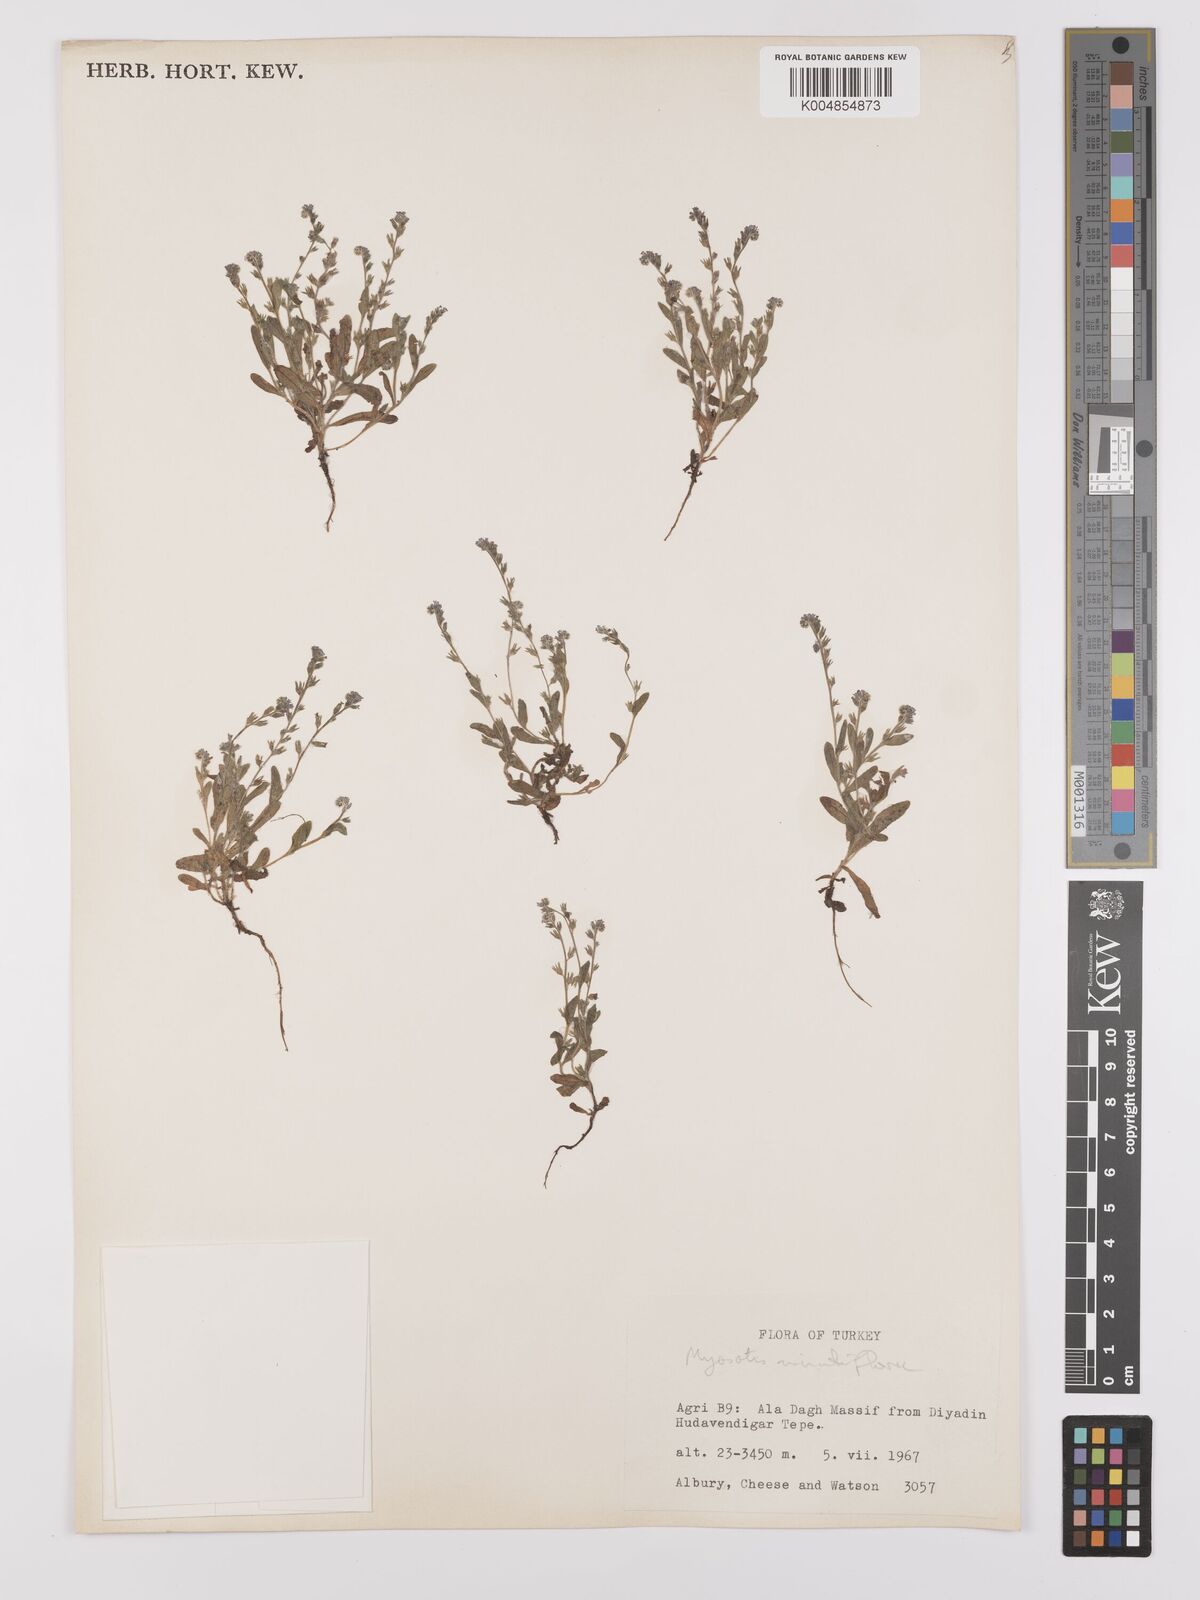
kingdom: Plantae
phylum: Tracheophyta
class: Magnoliopsida
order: Boraginales
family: Boraginaceae
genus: Myosotis
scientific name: Myosotis minutiflora
